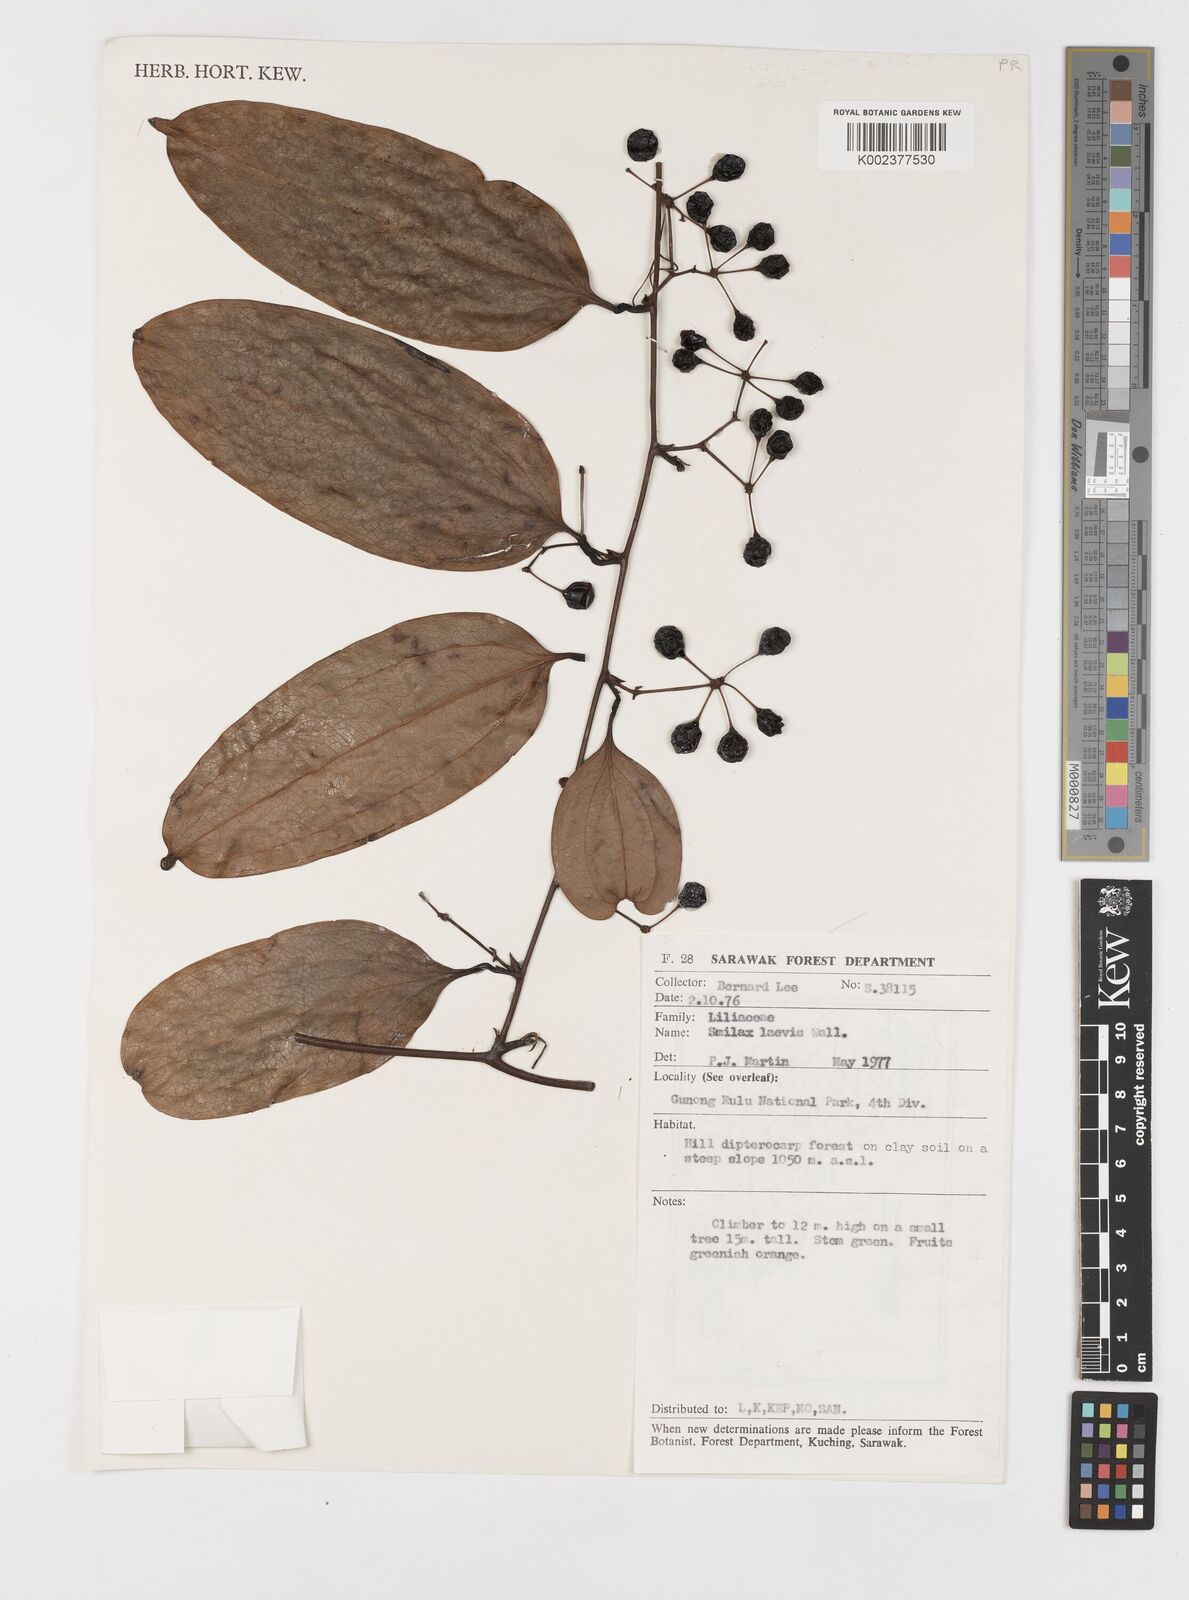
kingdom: Plantae
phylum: Tracheophyta
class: Liliopsida
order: Liliales
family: Smilacaceae
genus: Smilax
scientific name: Smilax laevis
